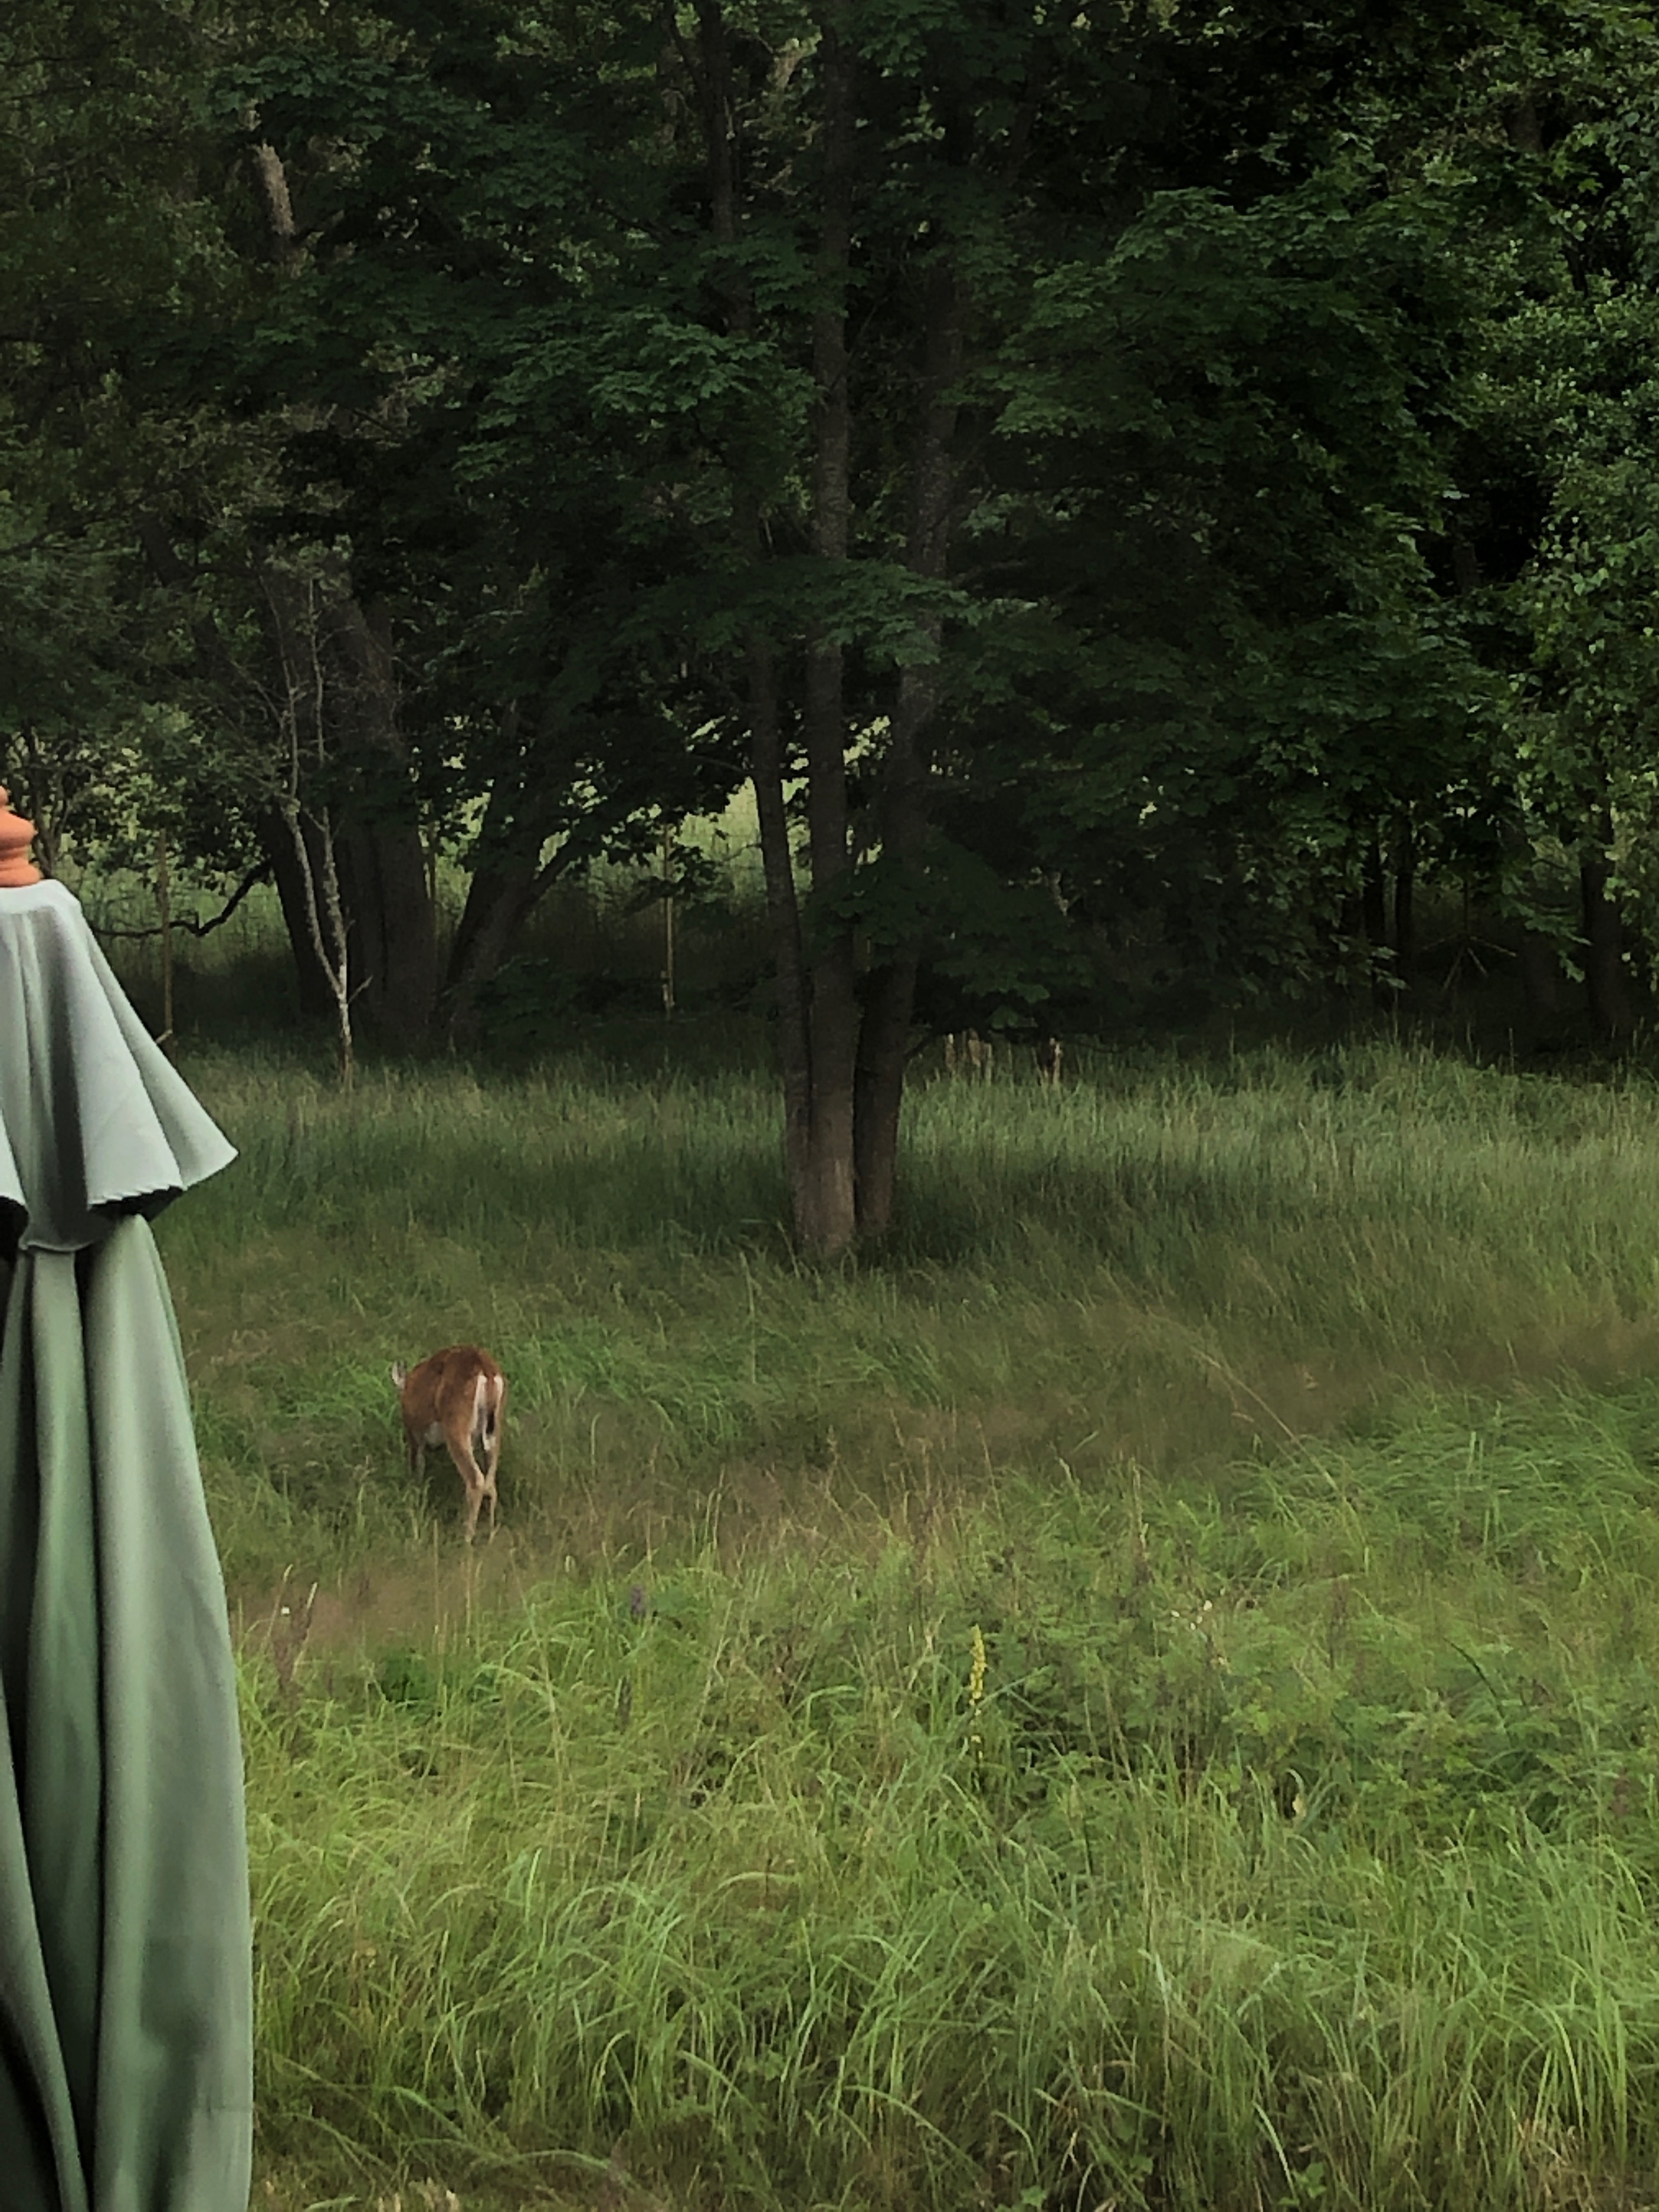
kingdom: Animalia
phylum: Chordata
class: Mammalia
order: Artiodactyla
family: Cervidae
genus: Odocoileus
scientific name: Odocoileus virginianus
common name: White-tailed deer
